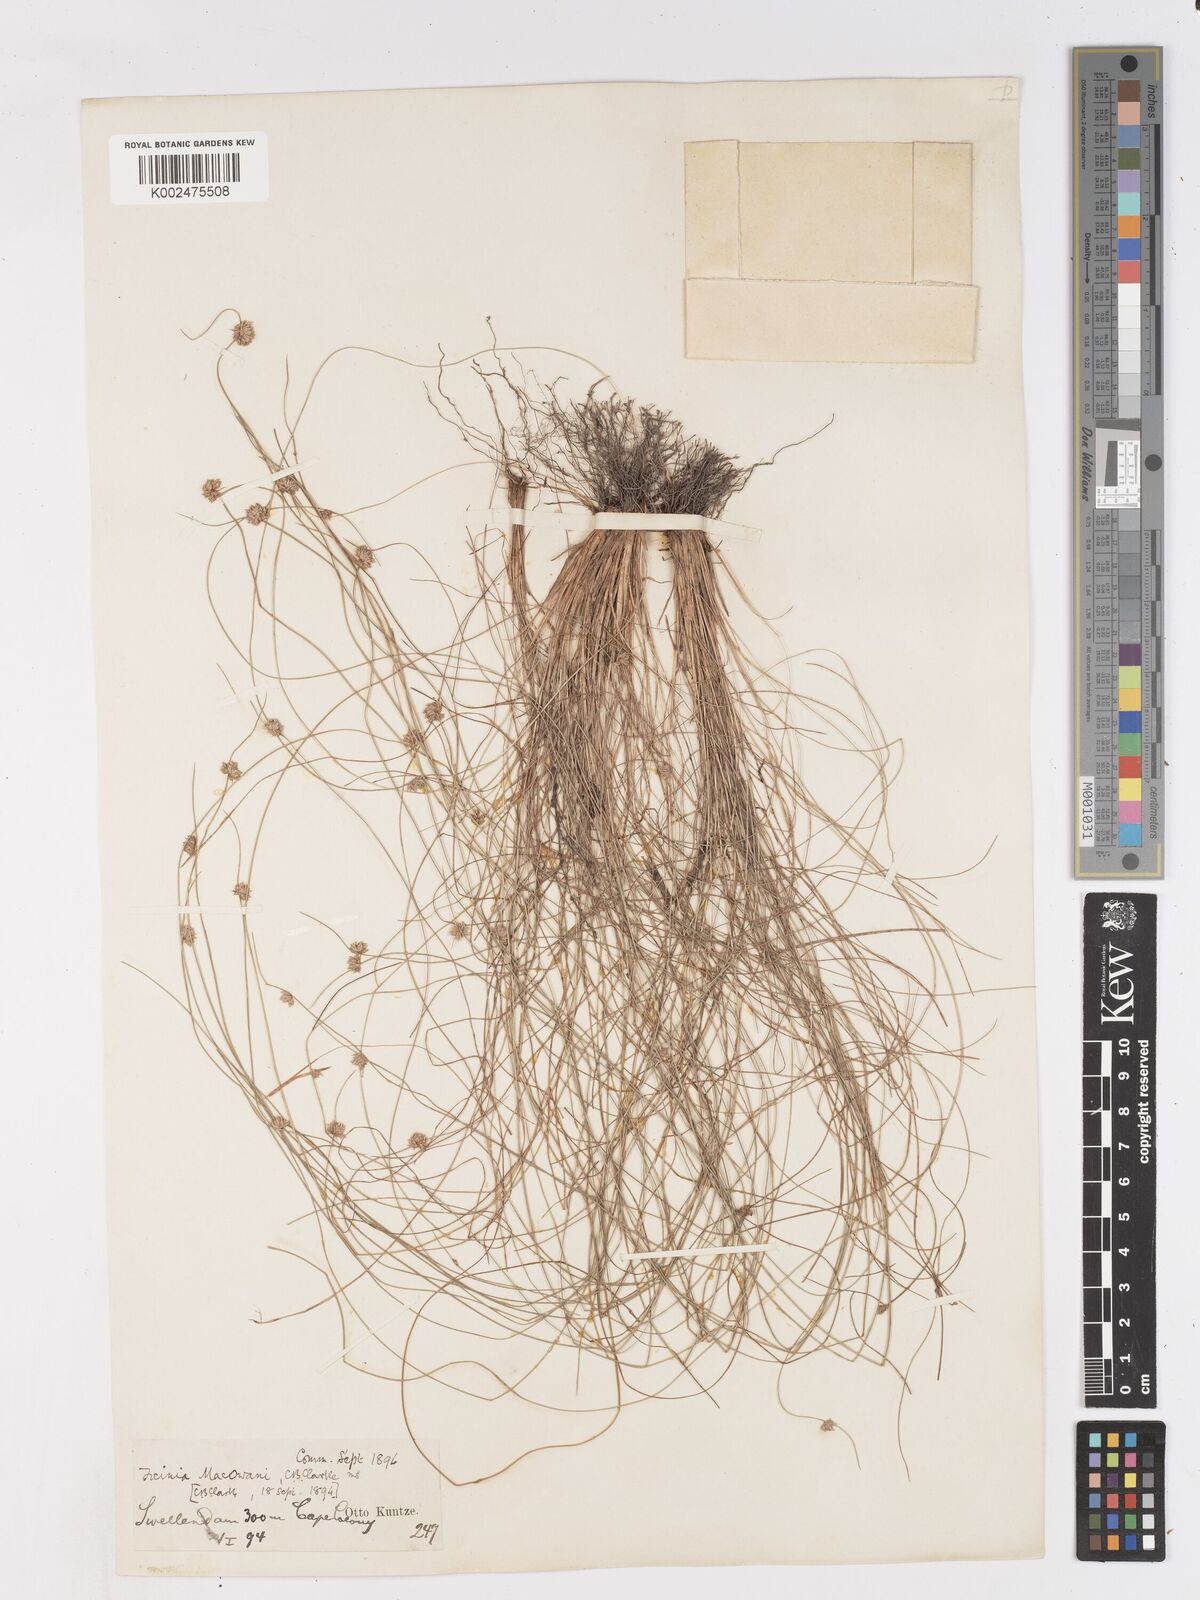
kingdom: Plantae
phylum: Tracheophyta
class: Liliopsida
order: Poales
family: Cyperaceae
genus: Ficinia
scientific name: Ficinia macowanii
